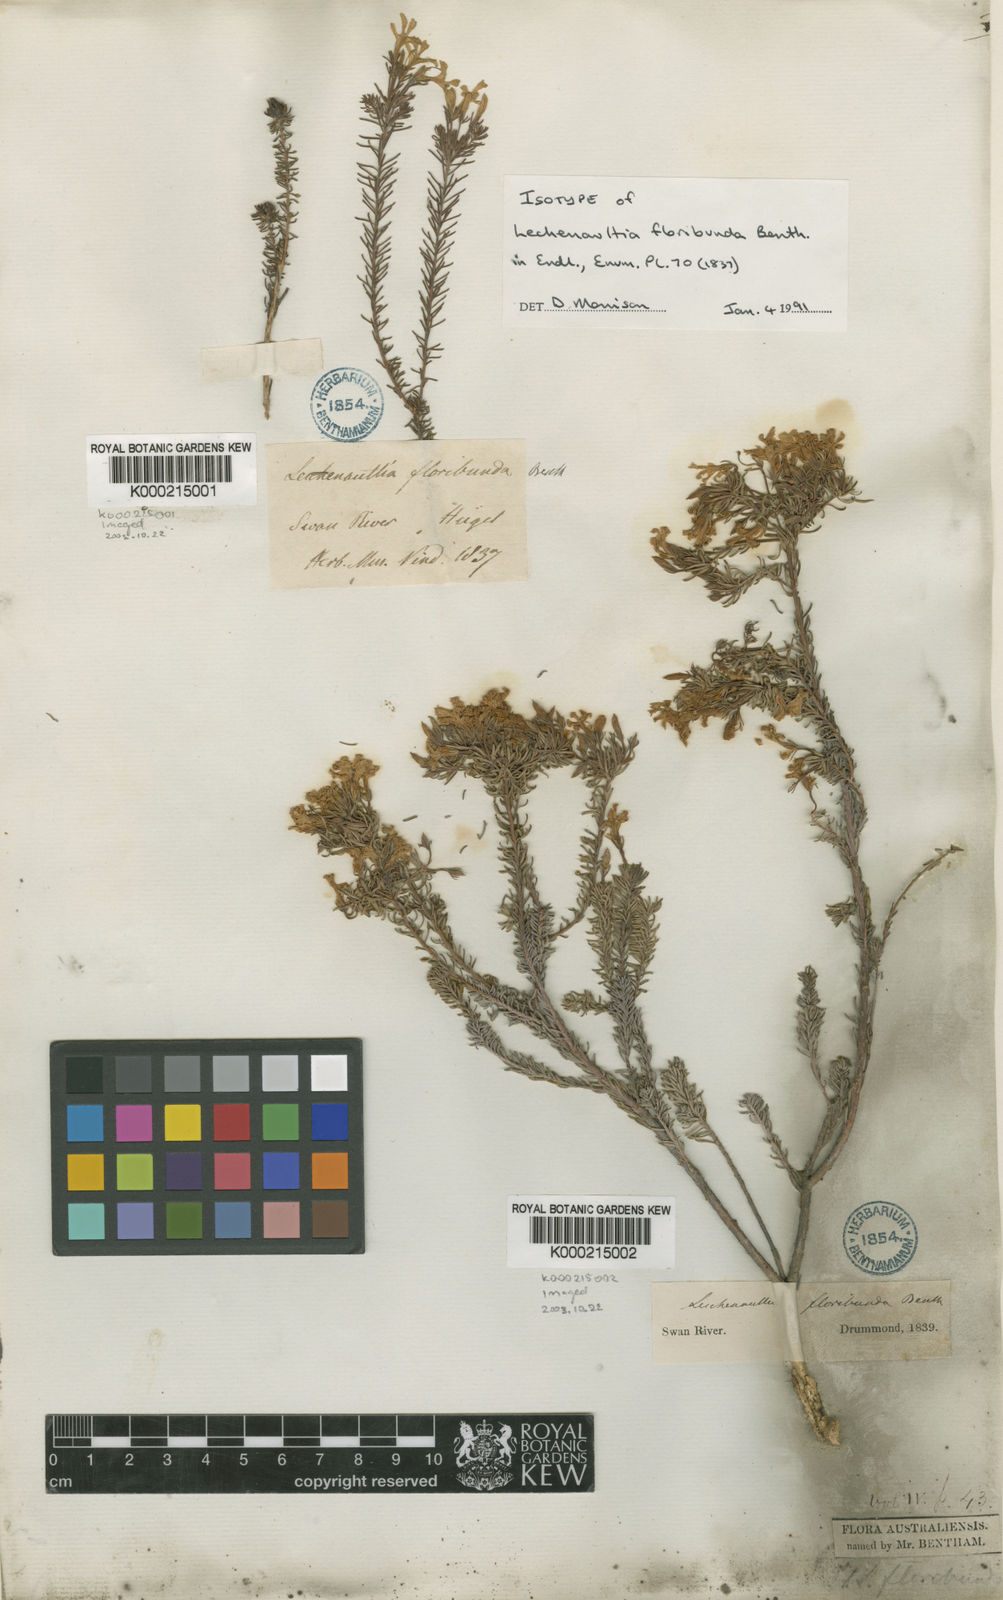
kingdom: Plantae
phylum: Tracheophyta
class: Magnoliopsida
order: Asterales
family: Goodeniaceae
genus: Leschenaultia
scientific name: Leschenaultia floribunda
